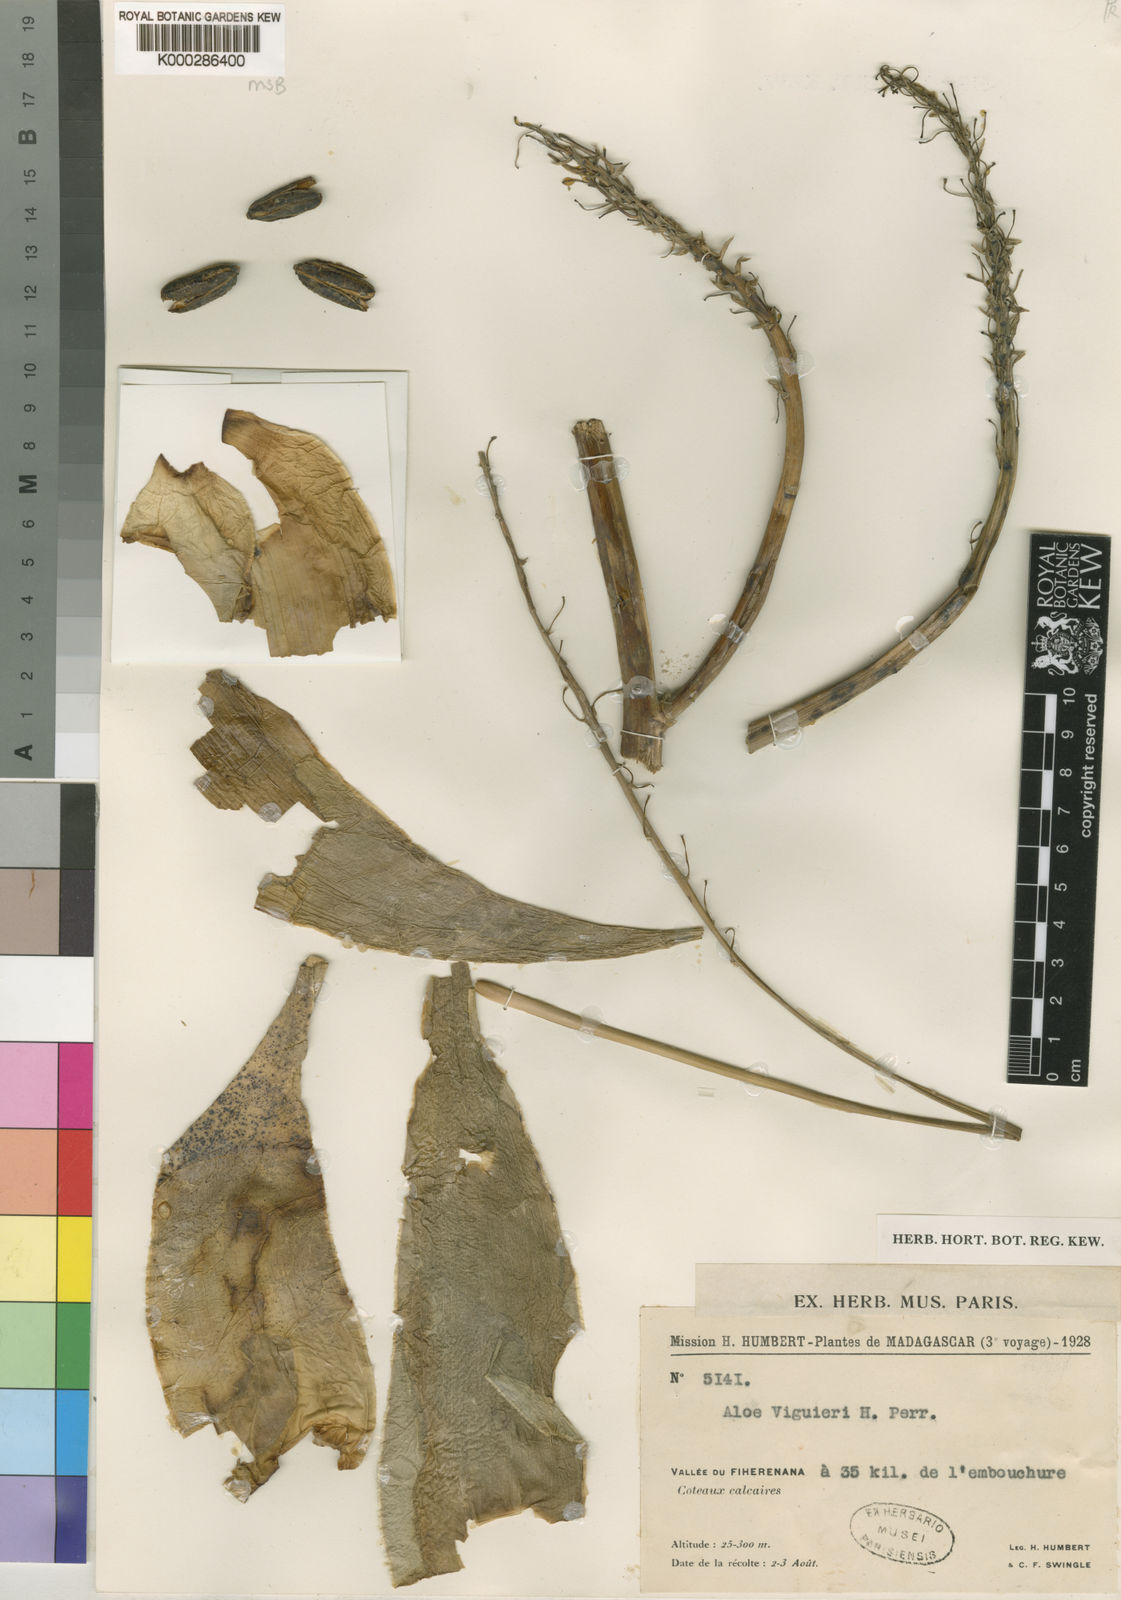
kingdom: Plantae
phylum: Tracheophyta
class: Liliopsida
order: Asparagales
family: Asphodelaceae
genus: Aloe
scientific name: Aloe
